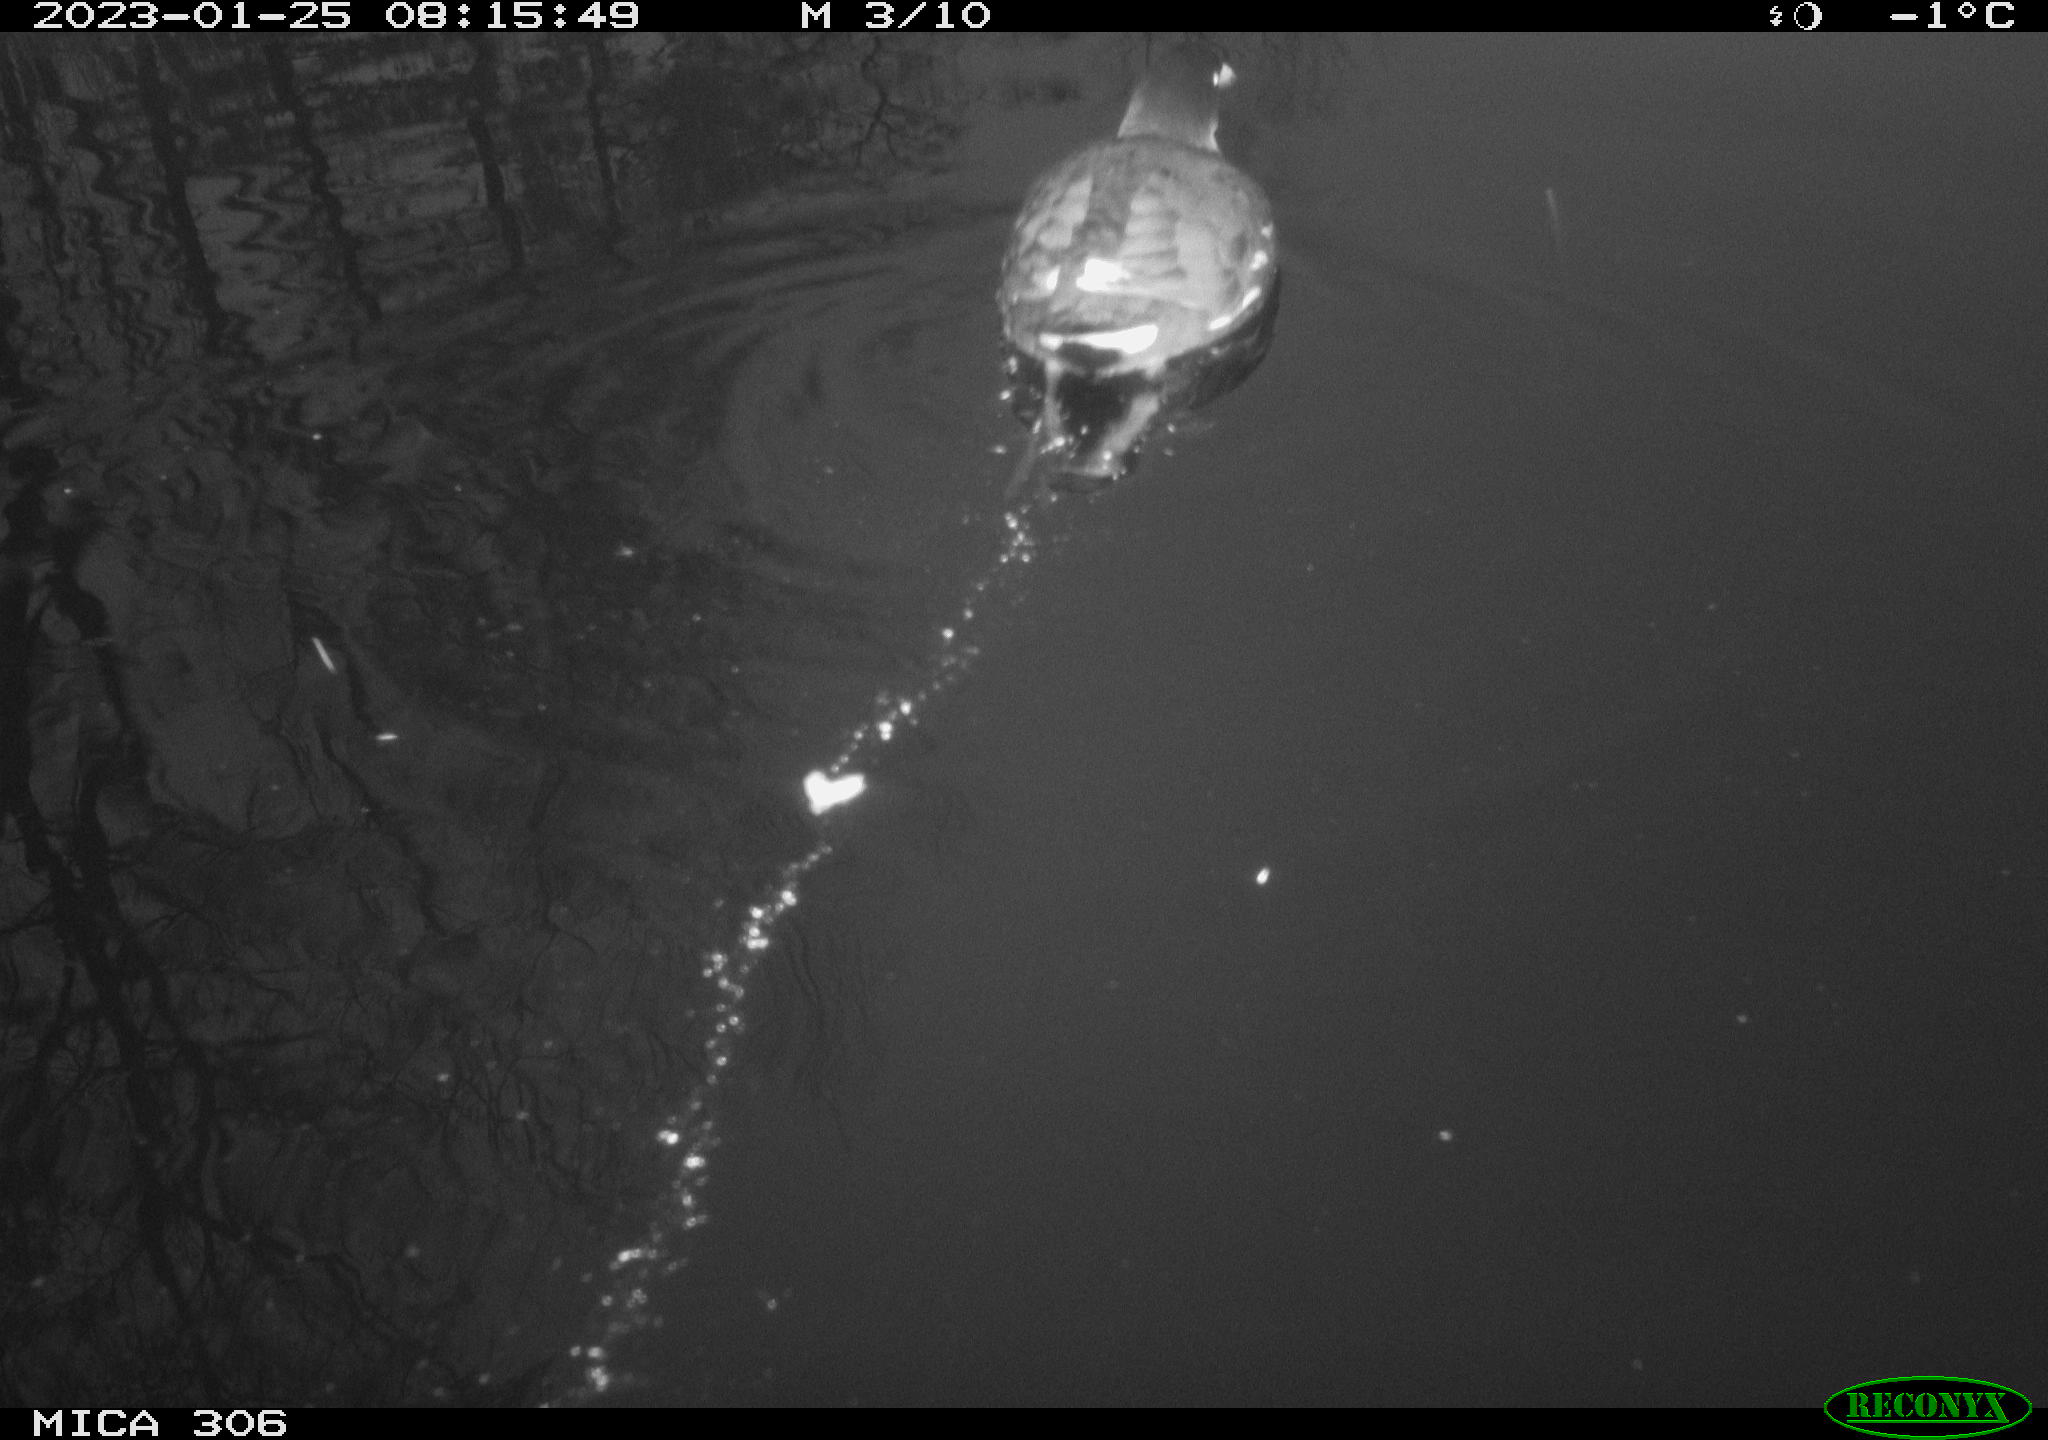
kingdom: Animalia
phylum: Chordata
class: Aves
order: Anseriformes
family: Anatidae
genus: Anas
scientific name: Anas
